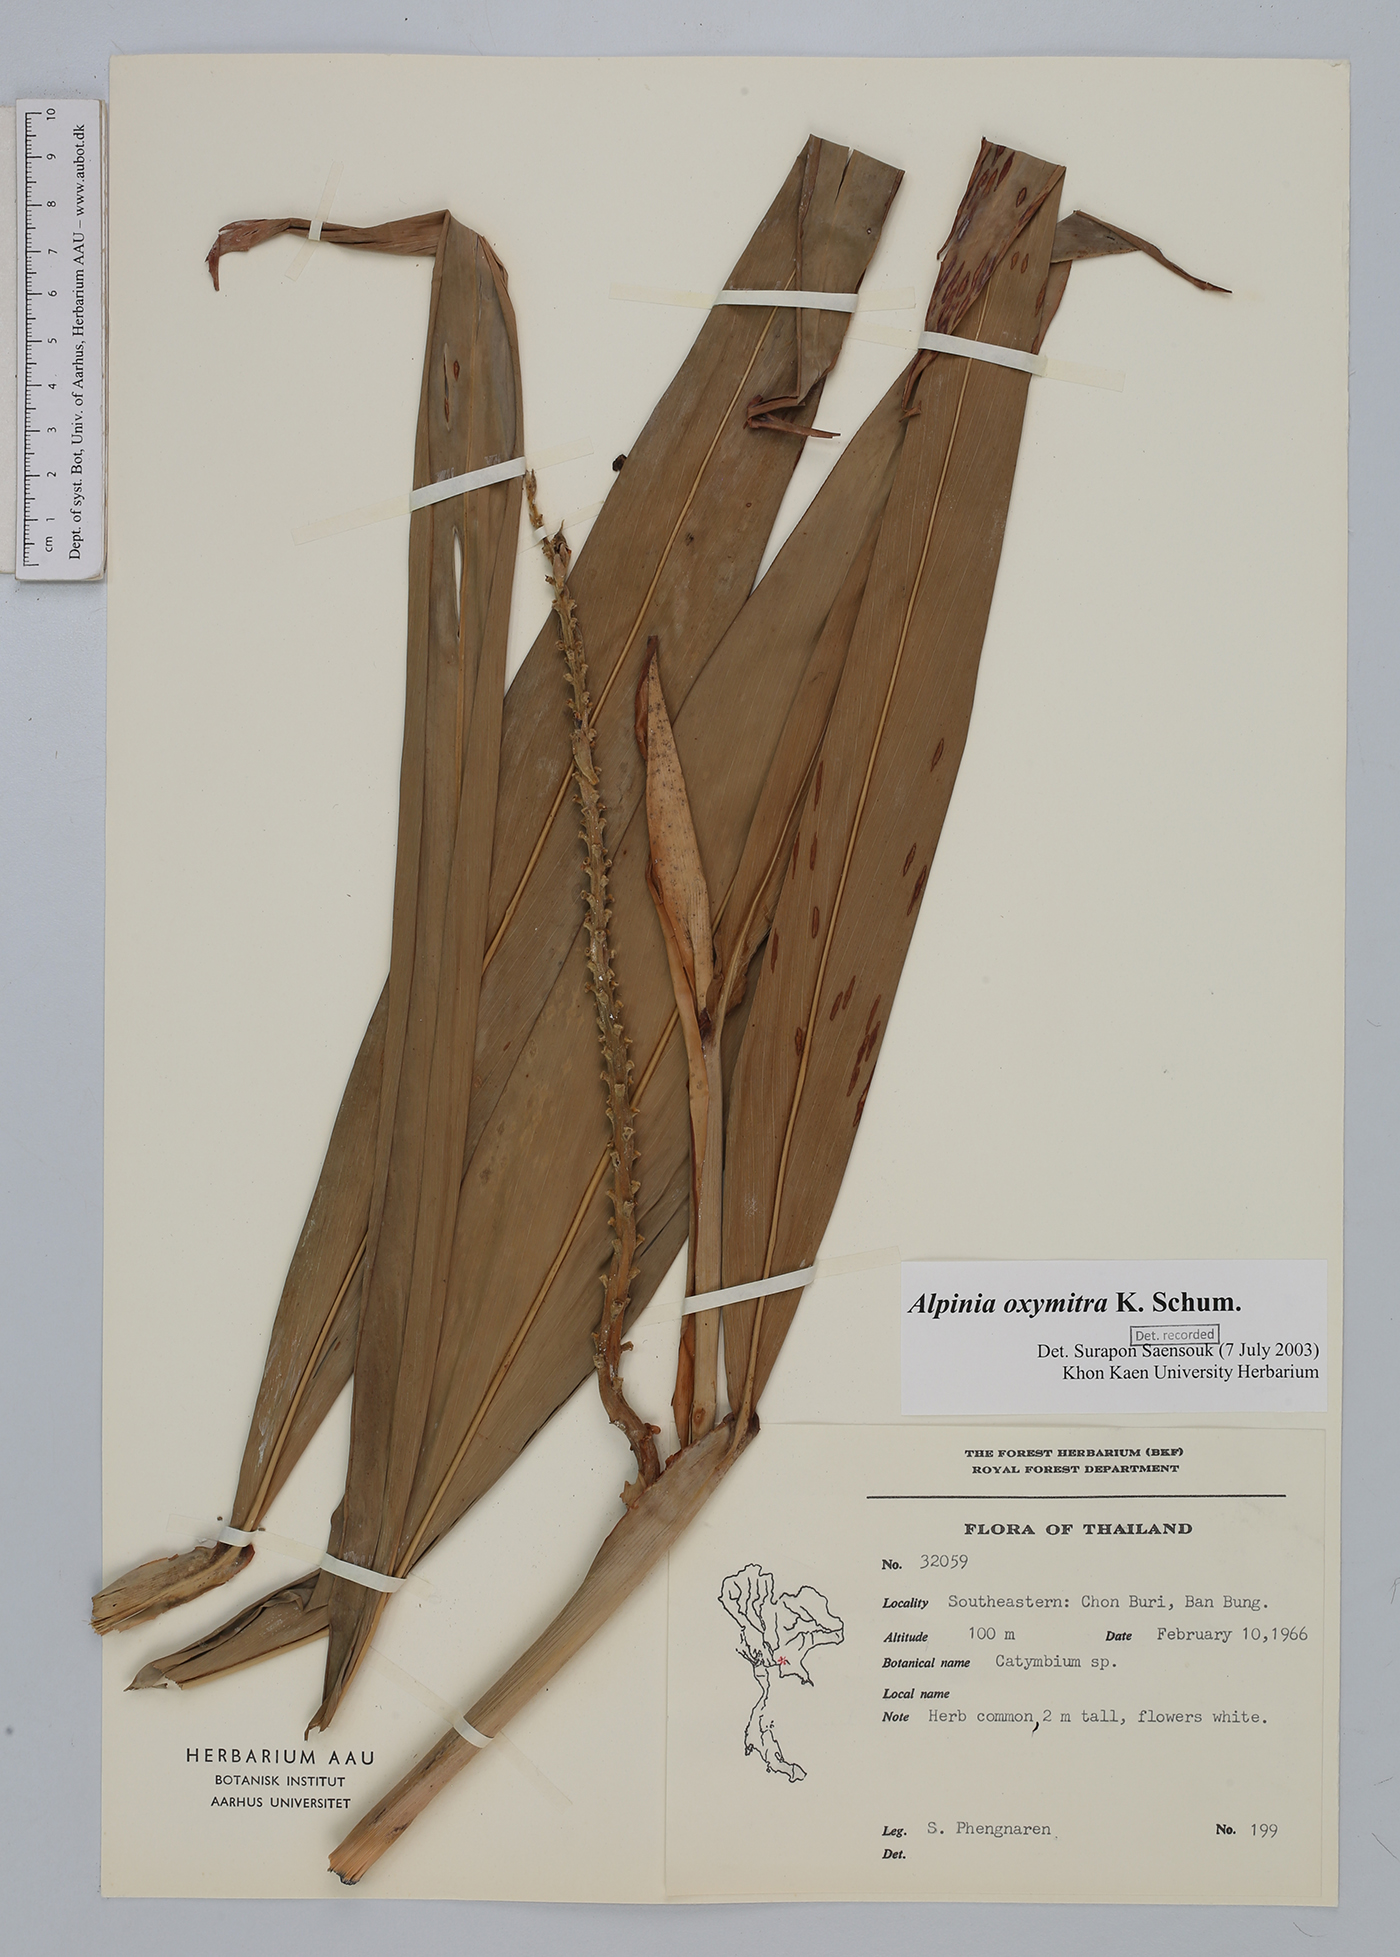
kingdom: Plantae
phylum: Tracheophyta
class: Liliopsida
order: Zingiberales
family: Zingiberaceae
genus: Alpinia
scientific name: Alpinia oxymitra
